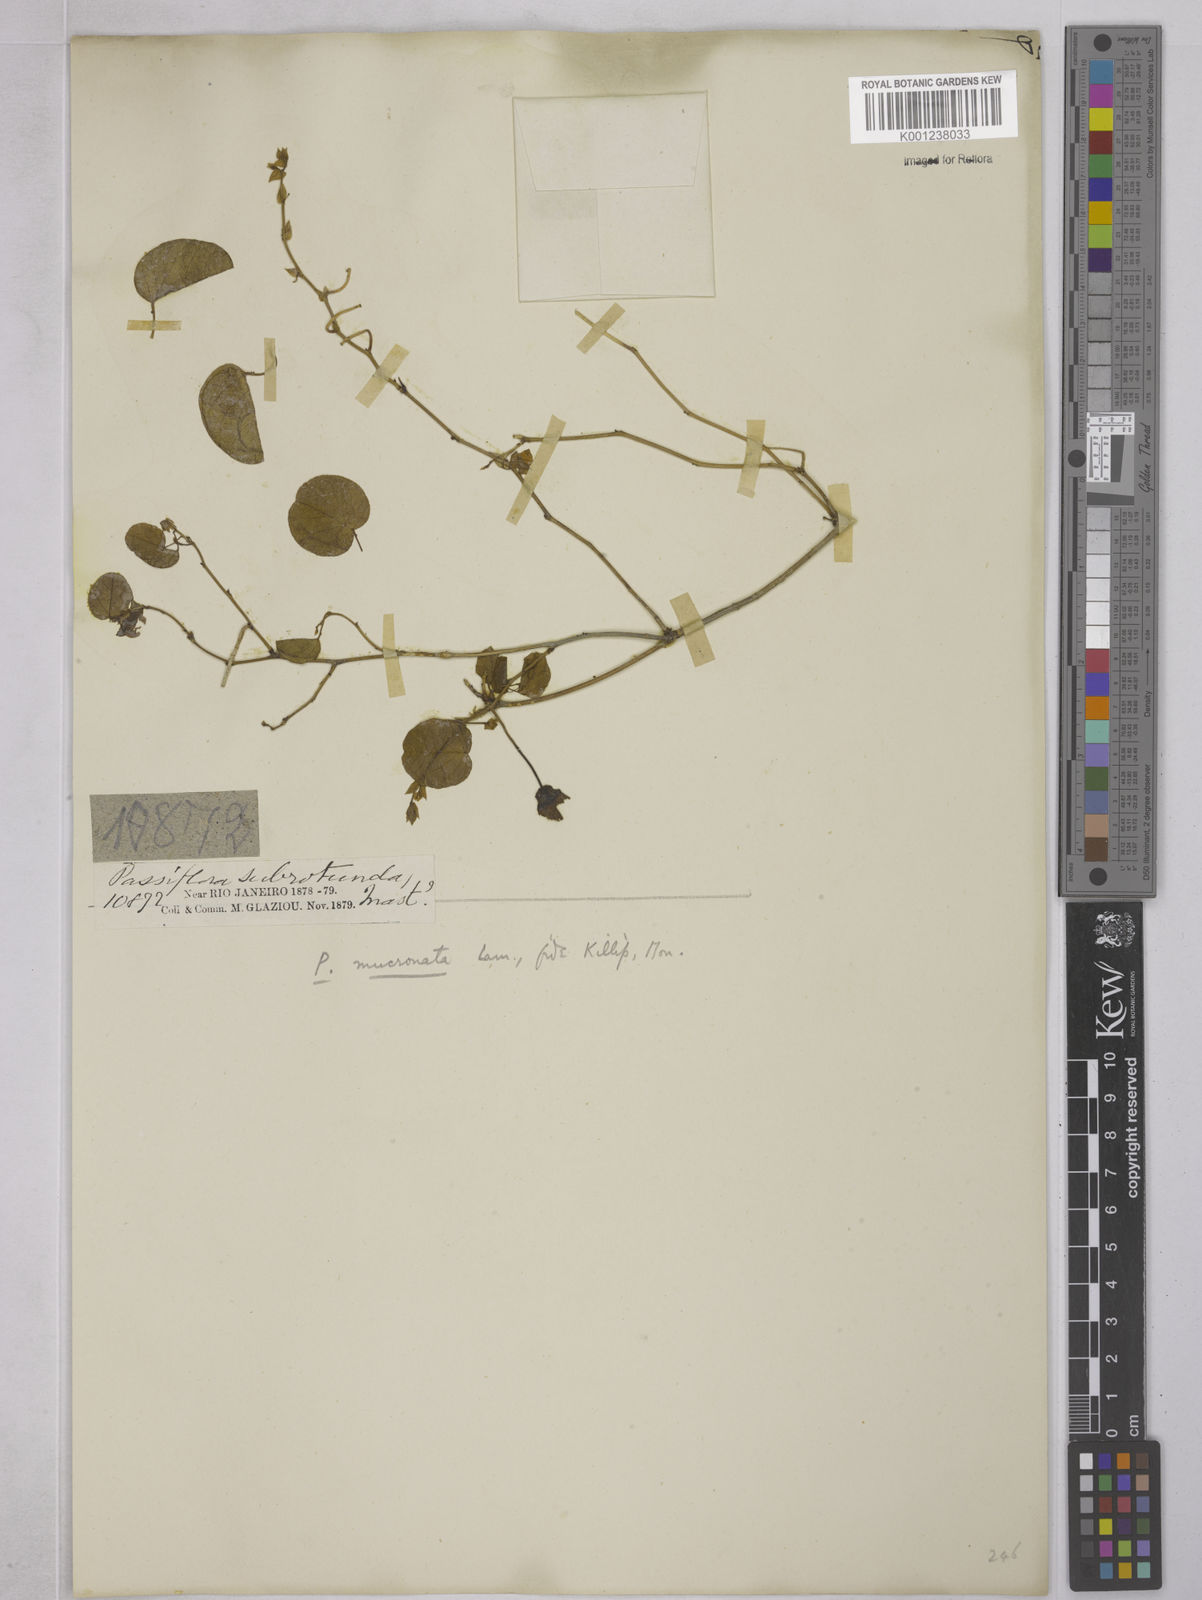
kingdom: Plantae
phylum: Tracheophyta
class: Magnoliopsida
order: Malpighiales
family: Passifloraceae
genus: Passiflora
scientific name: Passiflora mucronata
